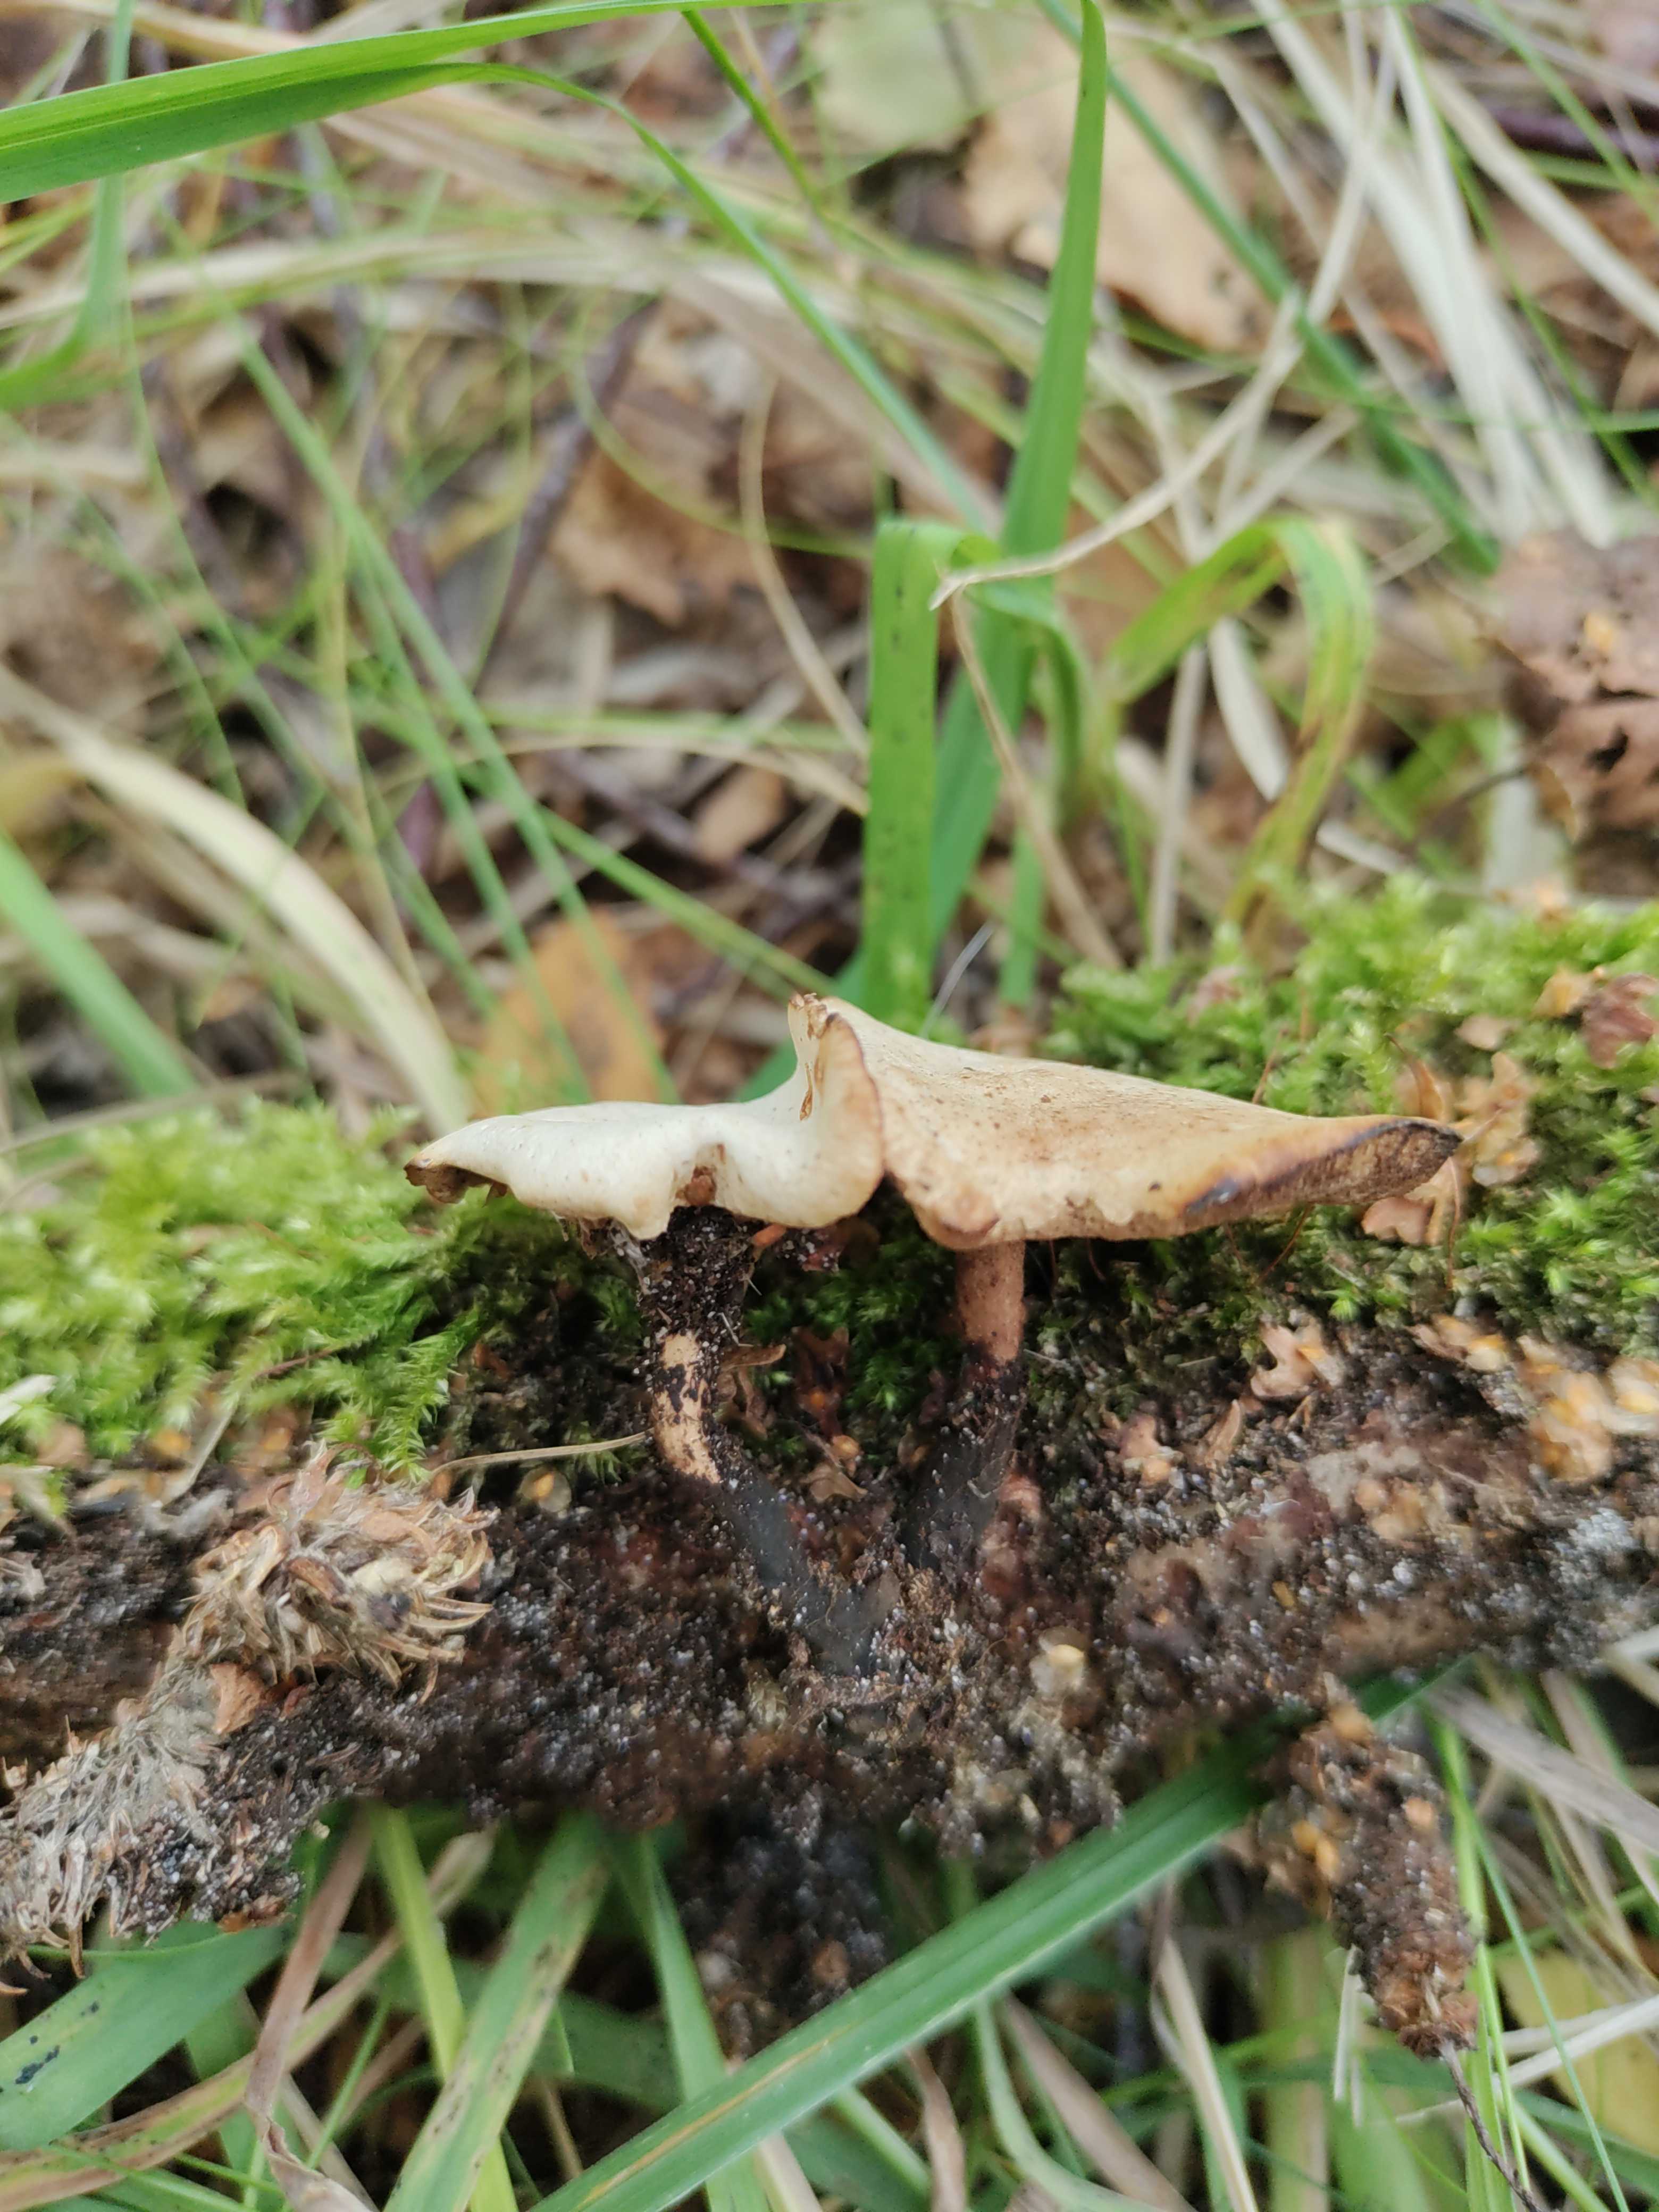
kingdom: Fungi
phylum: Basidiomycota
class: Agaricomycetes
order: Polyporales
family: Polyporaceae
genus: Cerioporus
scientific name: Cerioporus varius
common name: foranderlig stilkporesvamp
